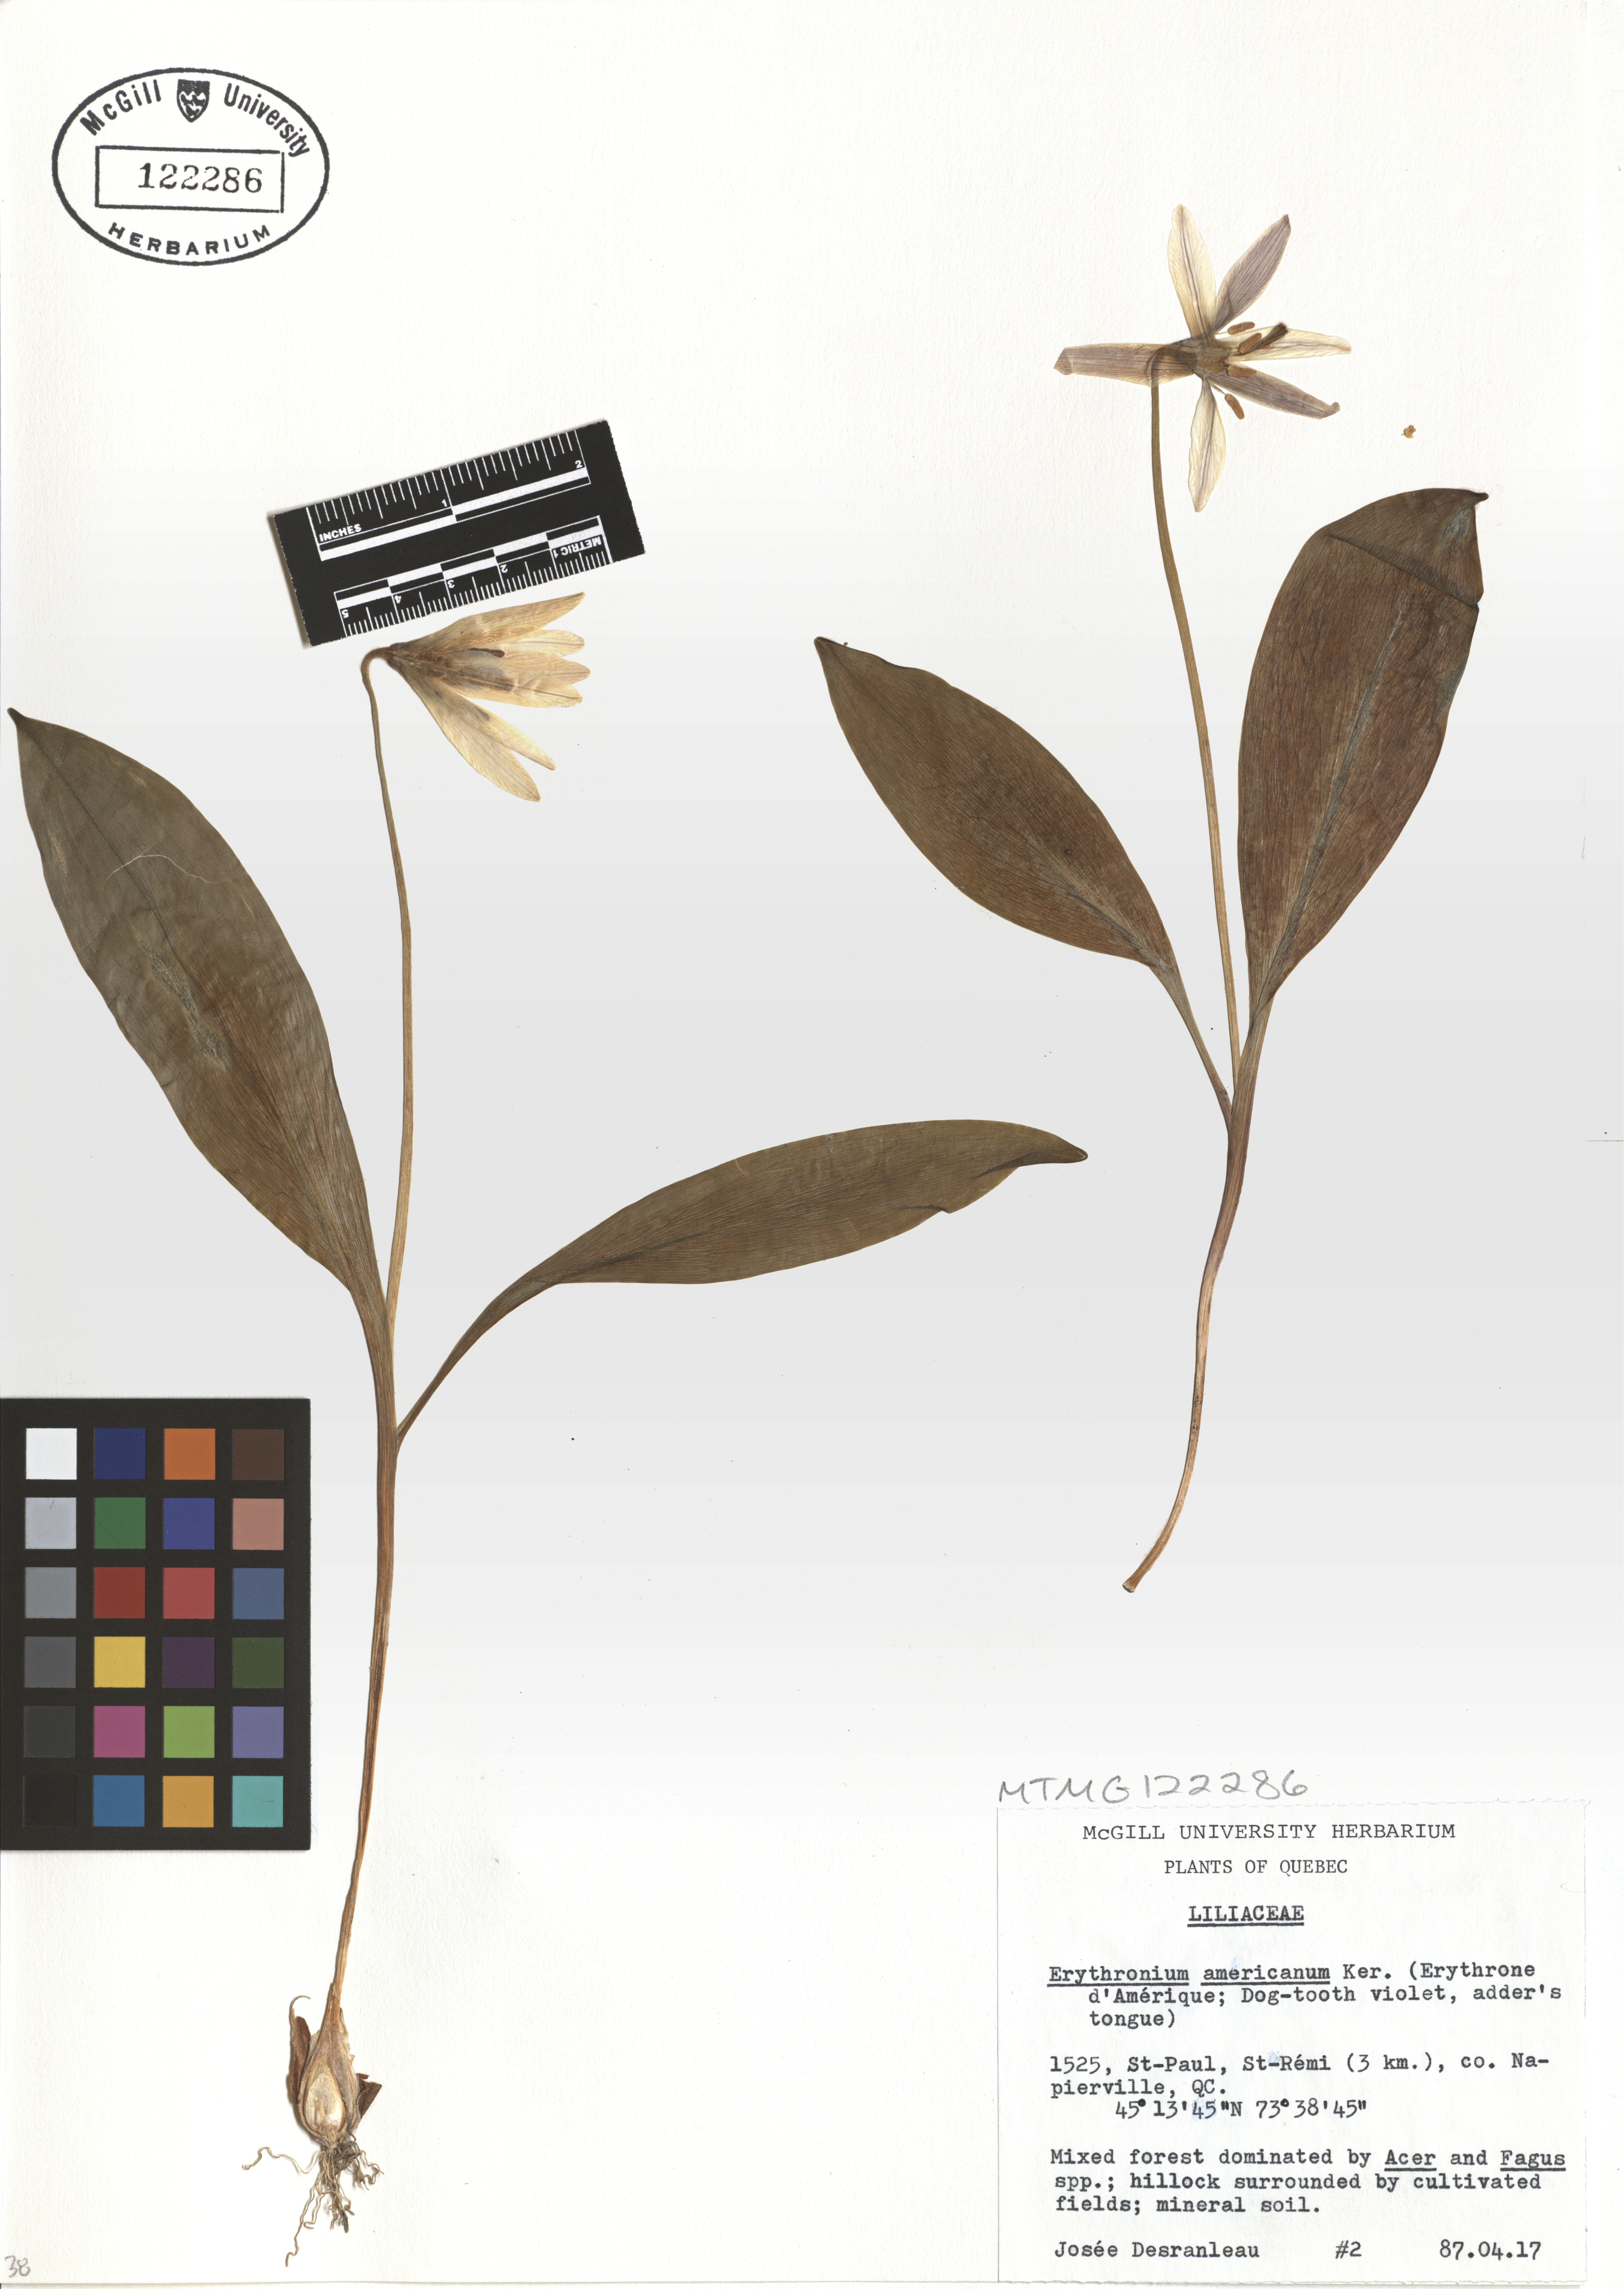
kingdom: Plantae
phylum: Tracheophyta
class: Liliopsida
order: Liliales
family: Liliaceae
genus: Erythronium
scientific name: Erythronium americanum
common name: Yellow adder's-tongue
